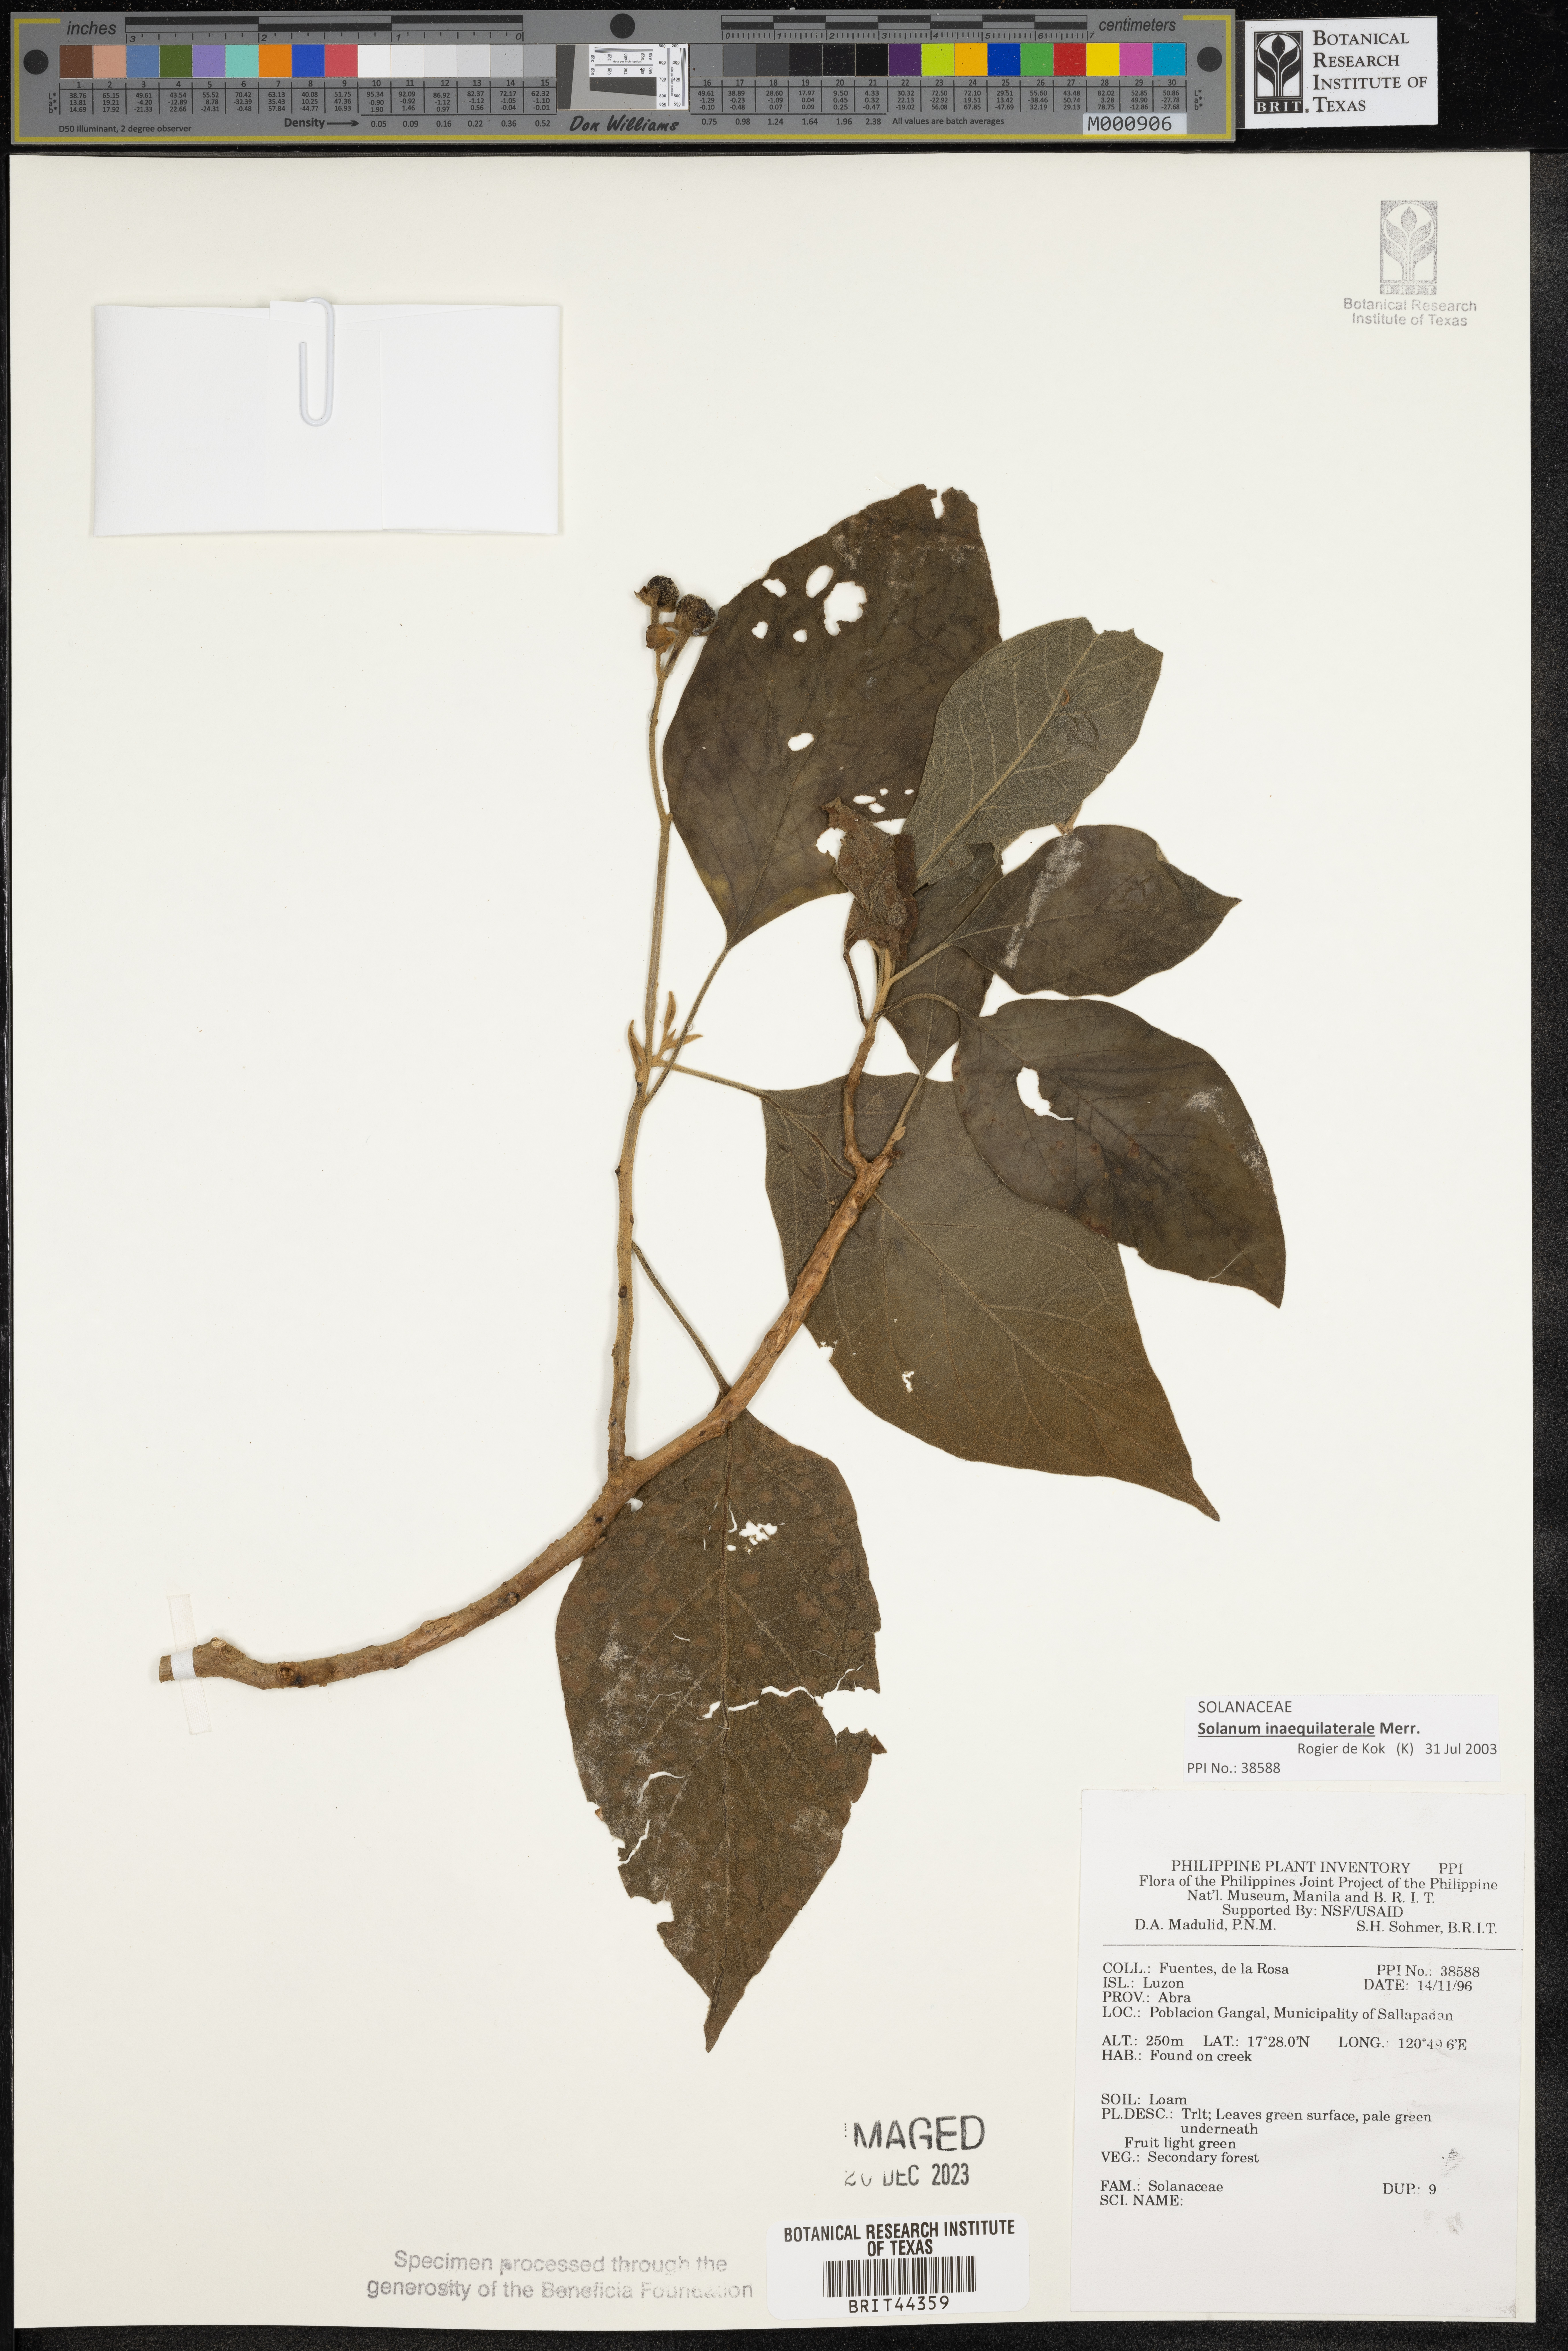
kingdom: Plantae
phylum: Tracheophyta
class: Magnoliopsida
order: Solanales
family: Solanaceae
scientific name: Solanaceae
